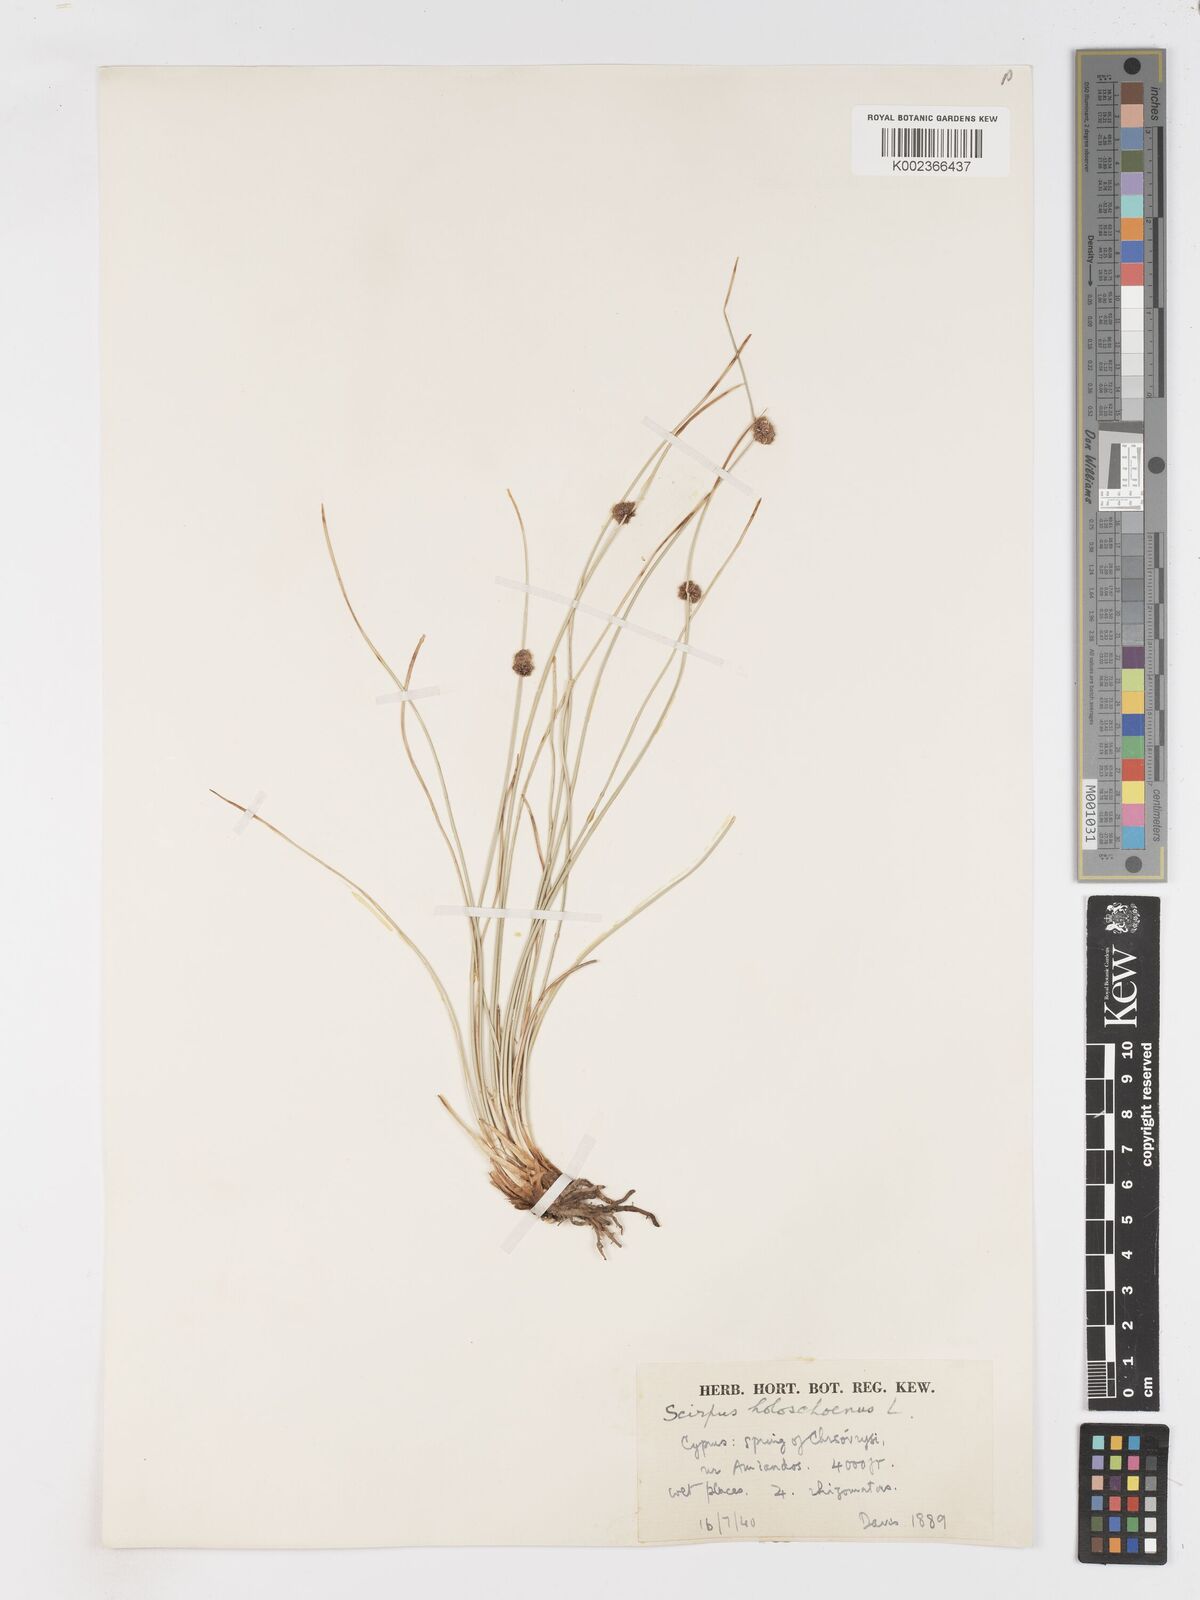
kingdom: Plantae
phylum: Tracheophyta
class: Liliopsida
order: Poales
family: Cyperaceae
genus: Scirpoides
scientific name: Scirpoides holoschoenus
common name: Round-headed club-rush
